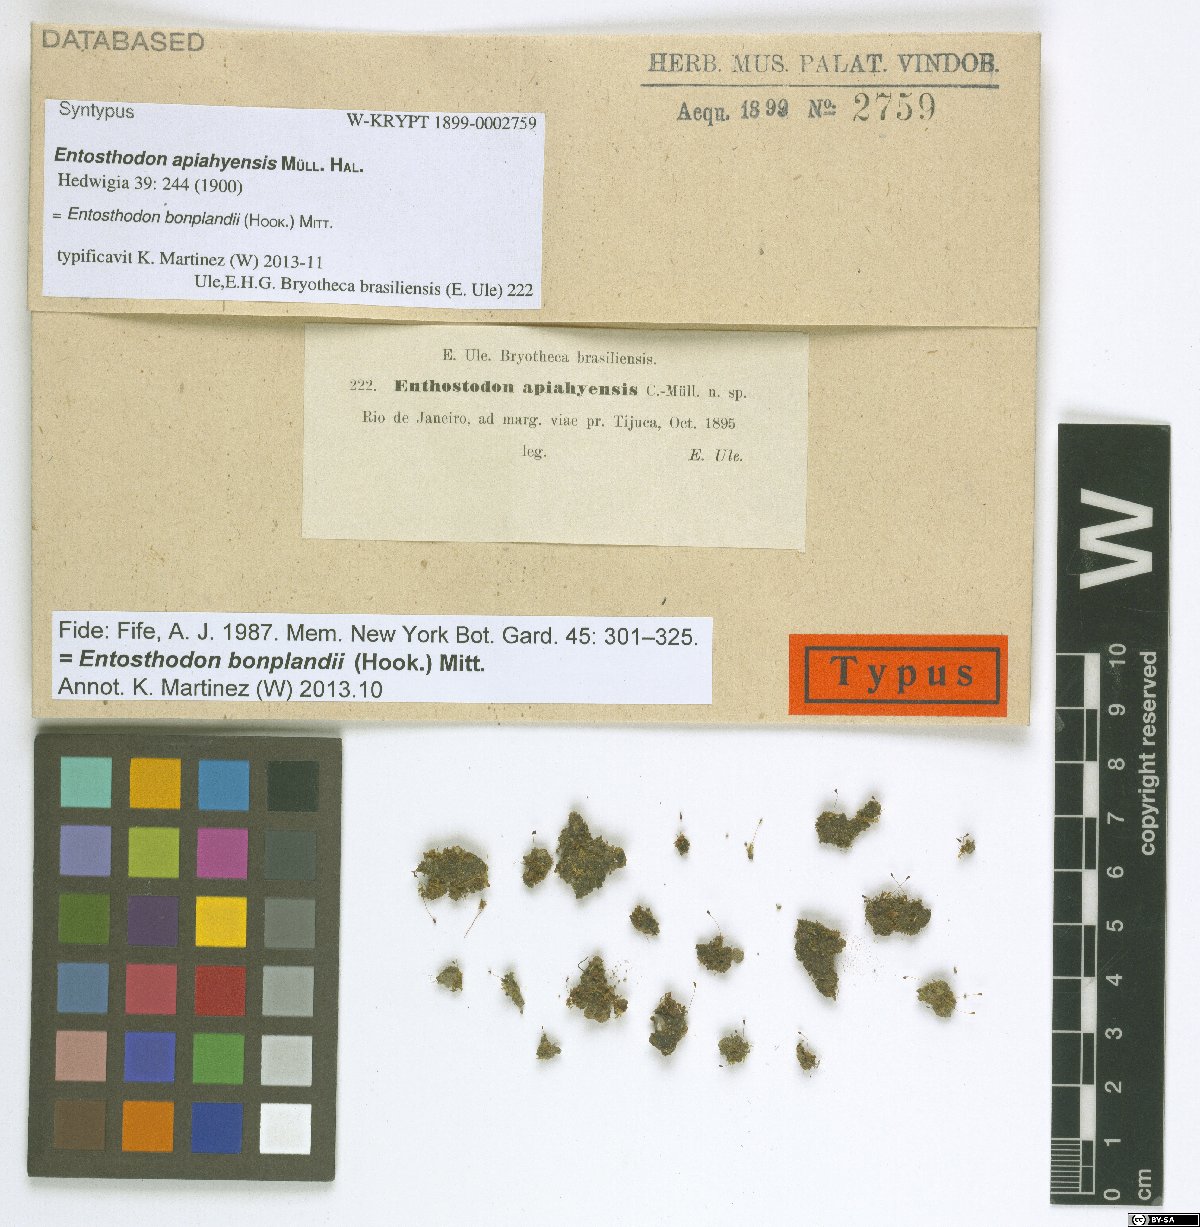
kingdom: Plantae
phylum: Bryophyta
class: Bryopsida
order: Funariales
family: Funariaceae
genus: Entosthodon
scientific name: Entosthodon bonplandii
